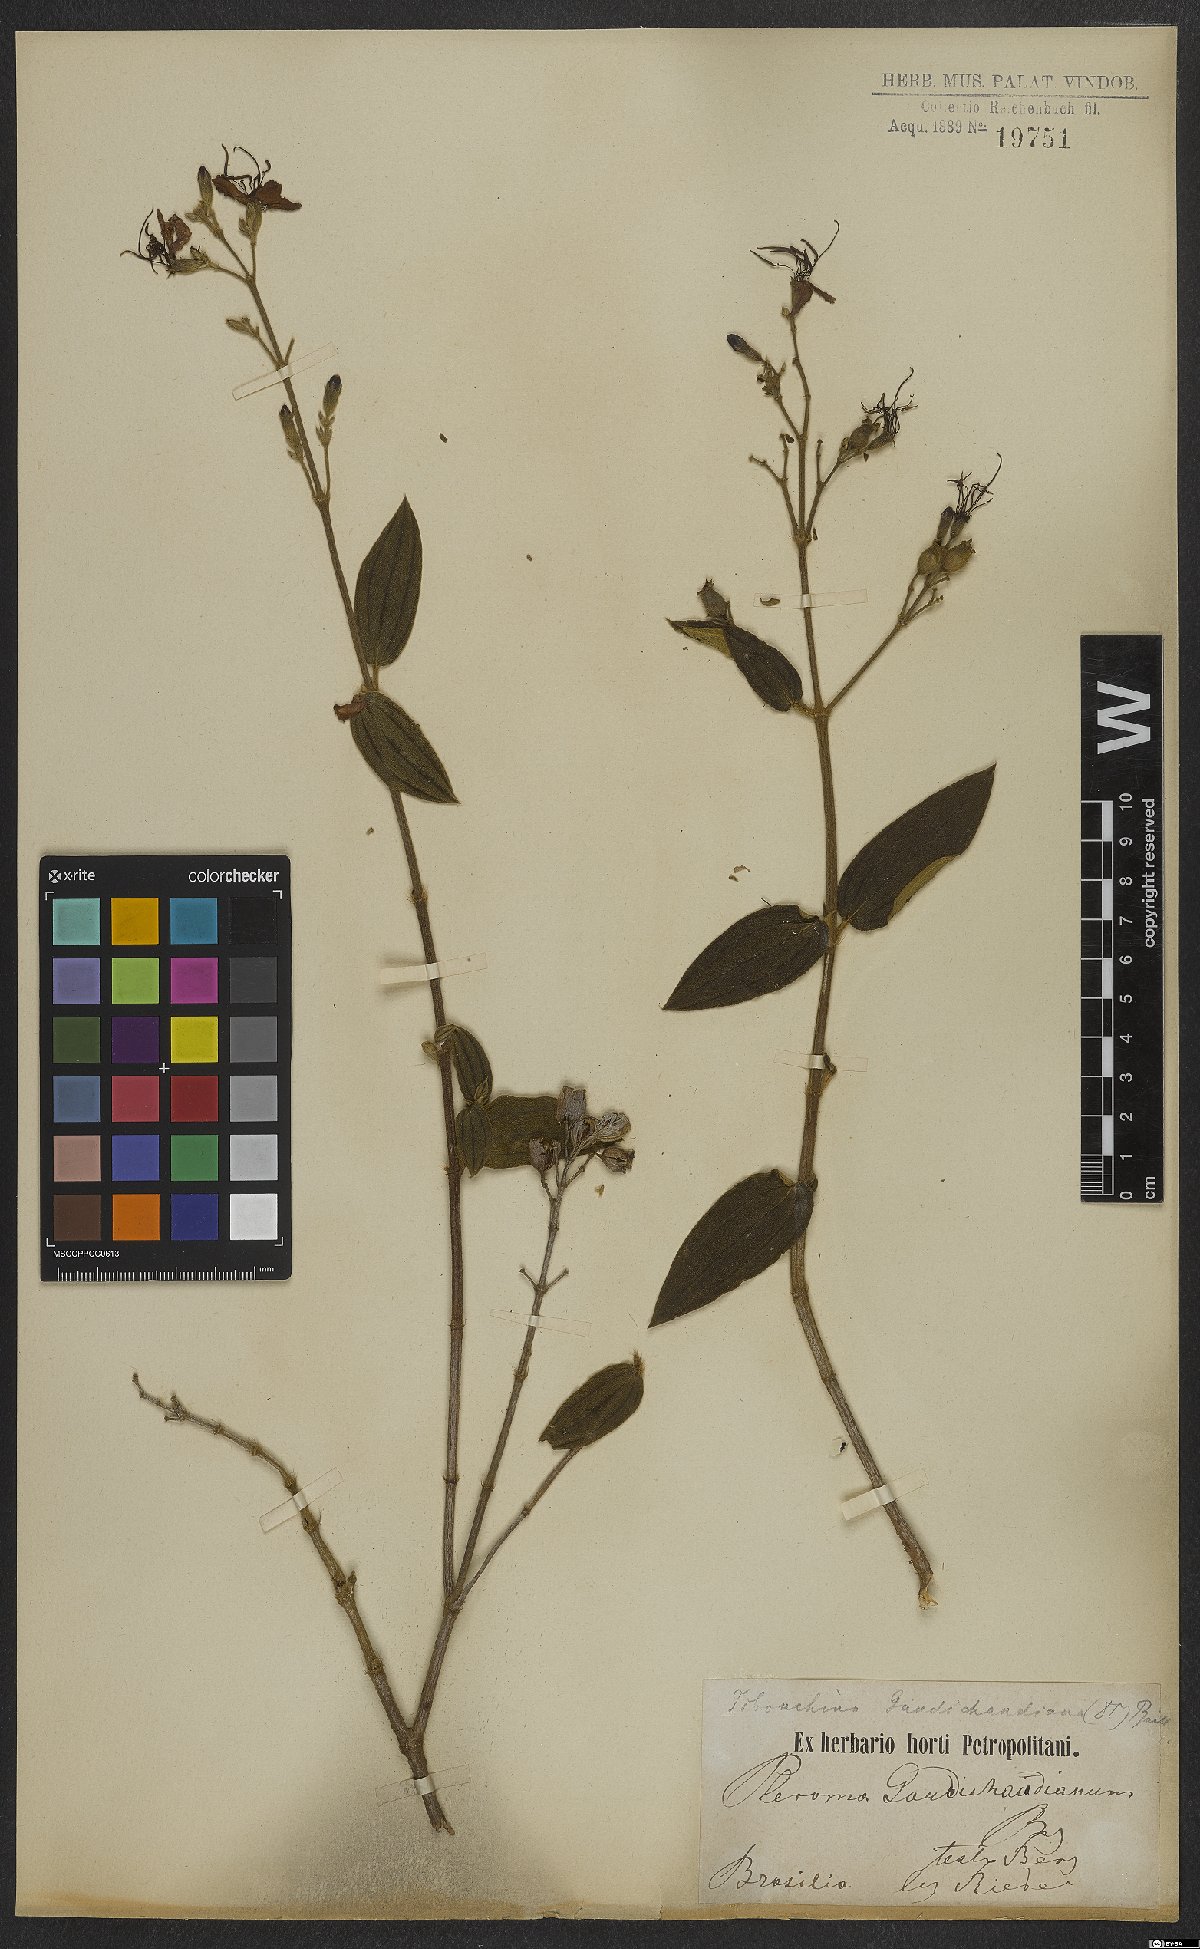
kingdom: Plantae
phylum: Tracheophyta
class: Magnoliopsida
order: Myrtales
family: Melastomataceae
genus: Pleroma
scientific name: Pleroma gaudichaudianum
